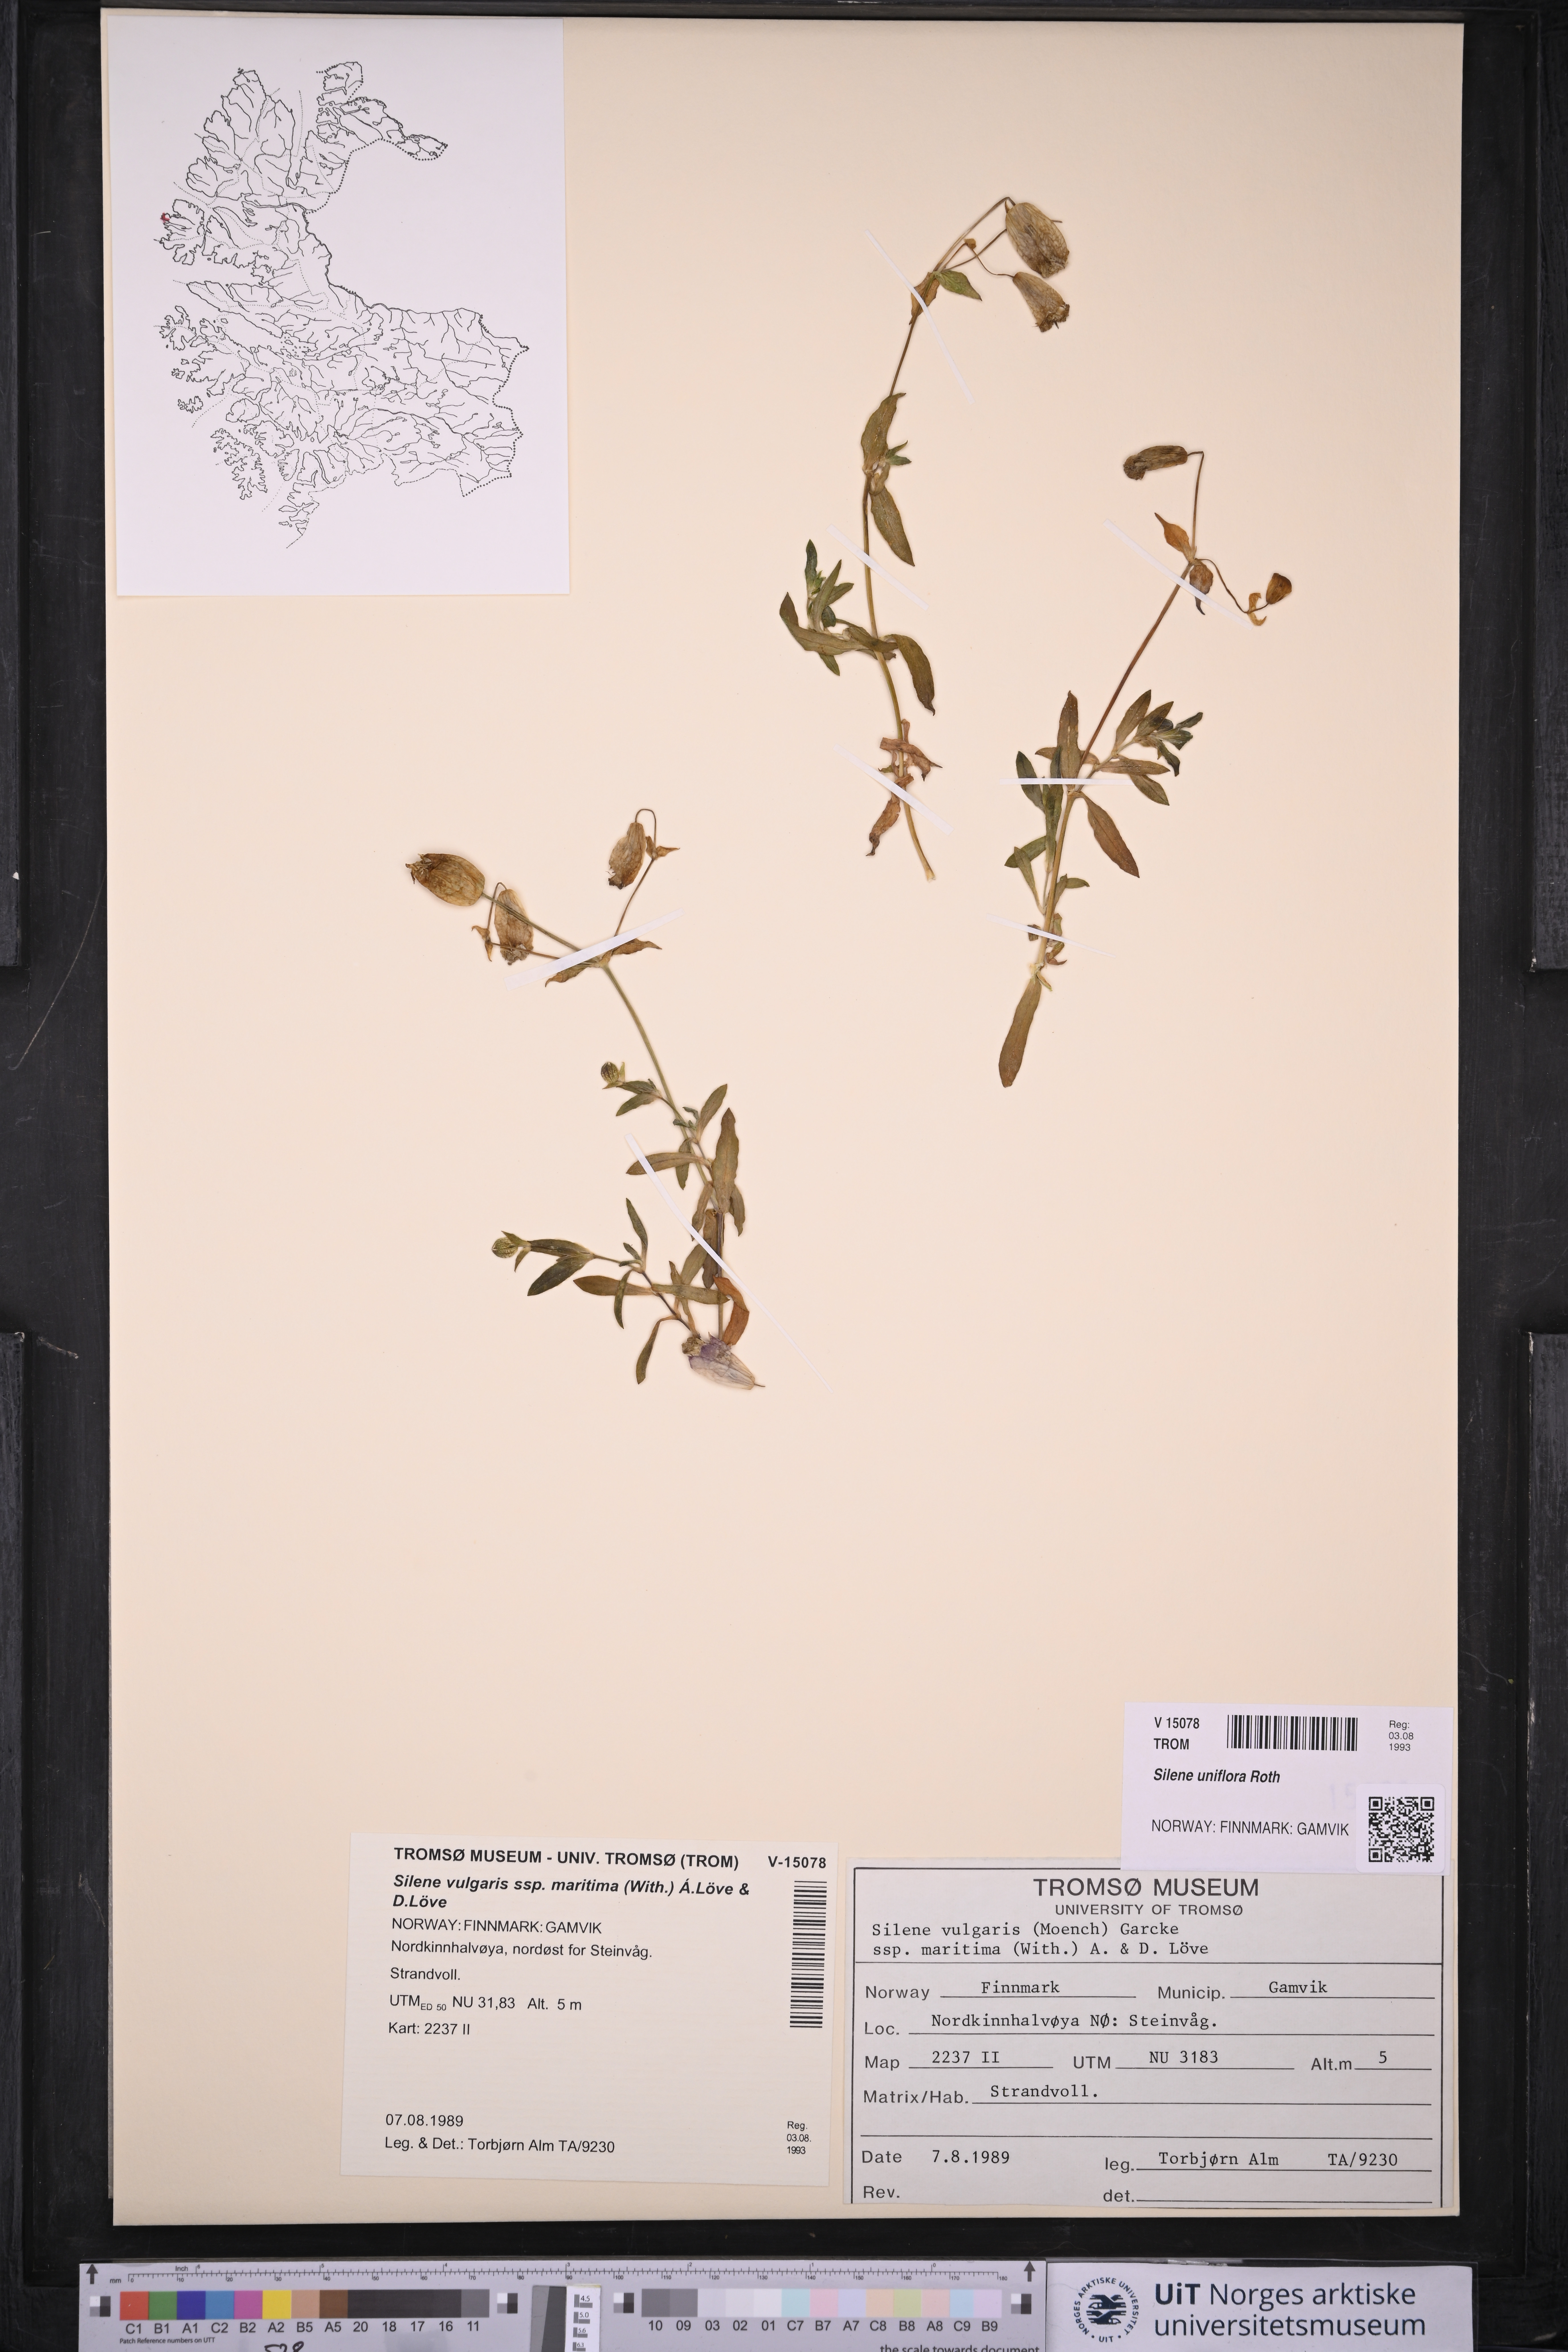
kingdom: Plantae
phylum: Tracheophyta
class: Magnoliopsida
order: Caryophyllales
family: Caryophyllaceae
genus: Silene
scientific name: Silene uniflora
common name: Sea campion
